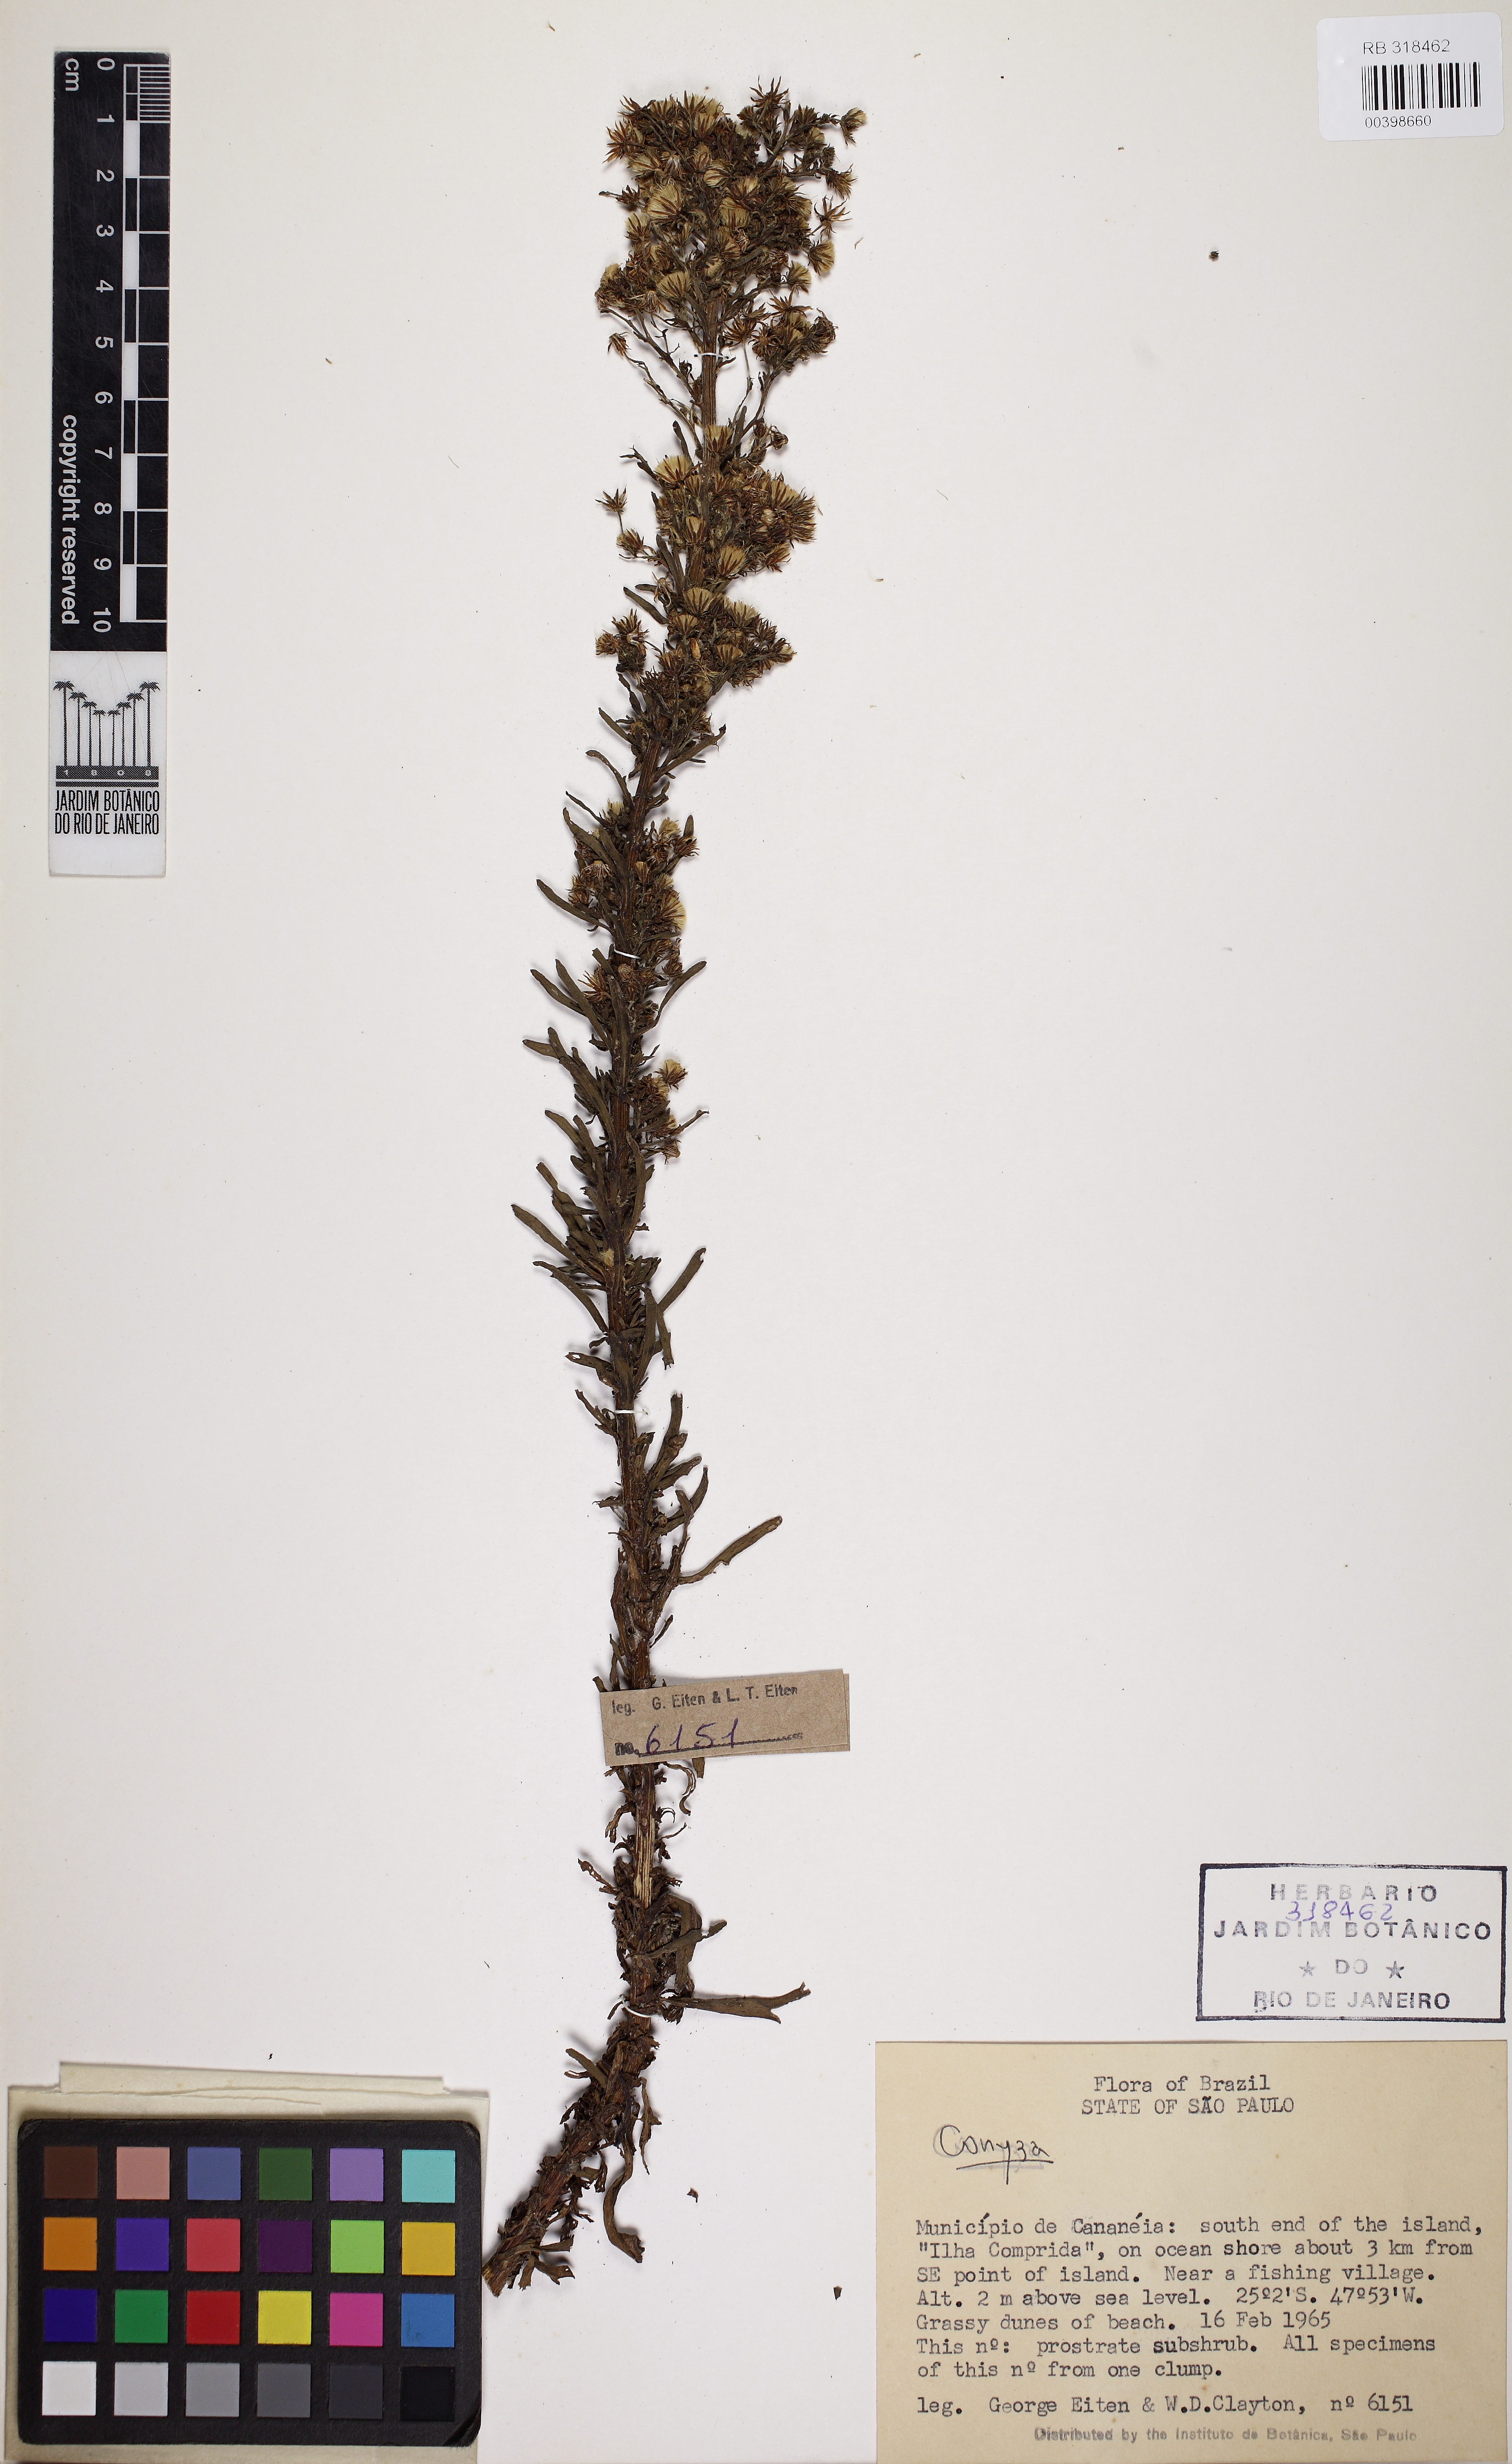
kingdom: Plantae
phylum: Tracheophyta
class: Magnoliopsida
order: Asterales
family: Asteraceae
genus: Conyza
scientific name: Conyza
